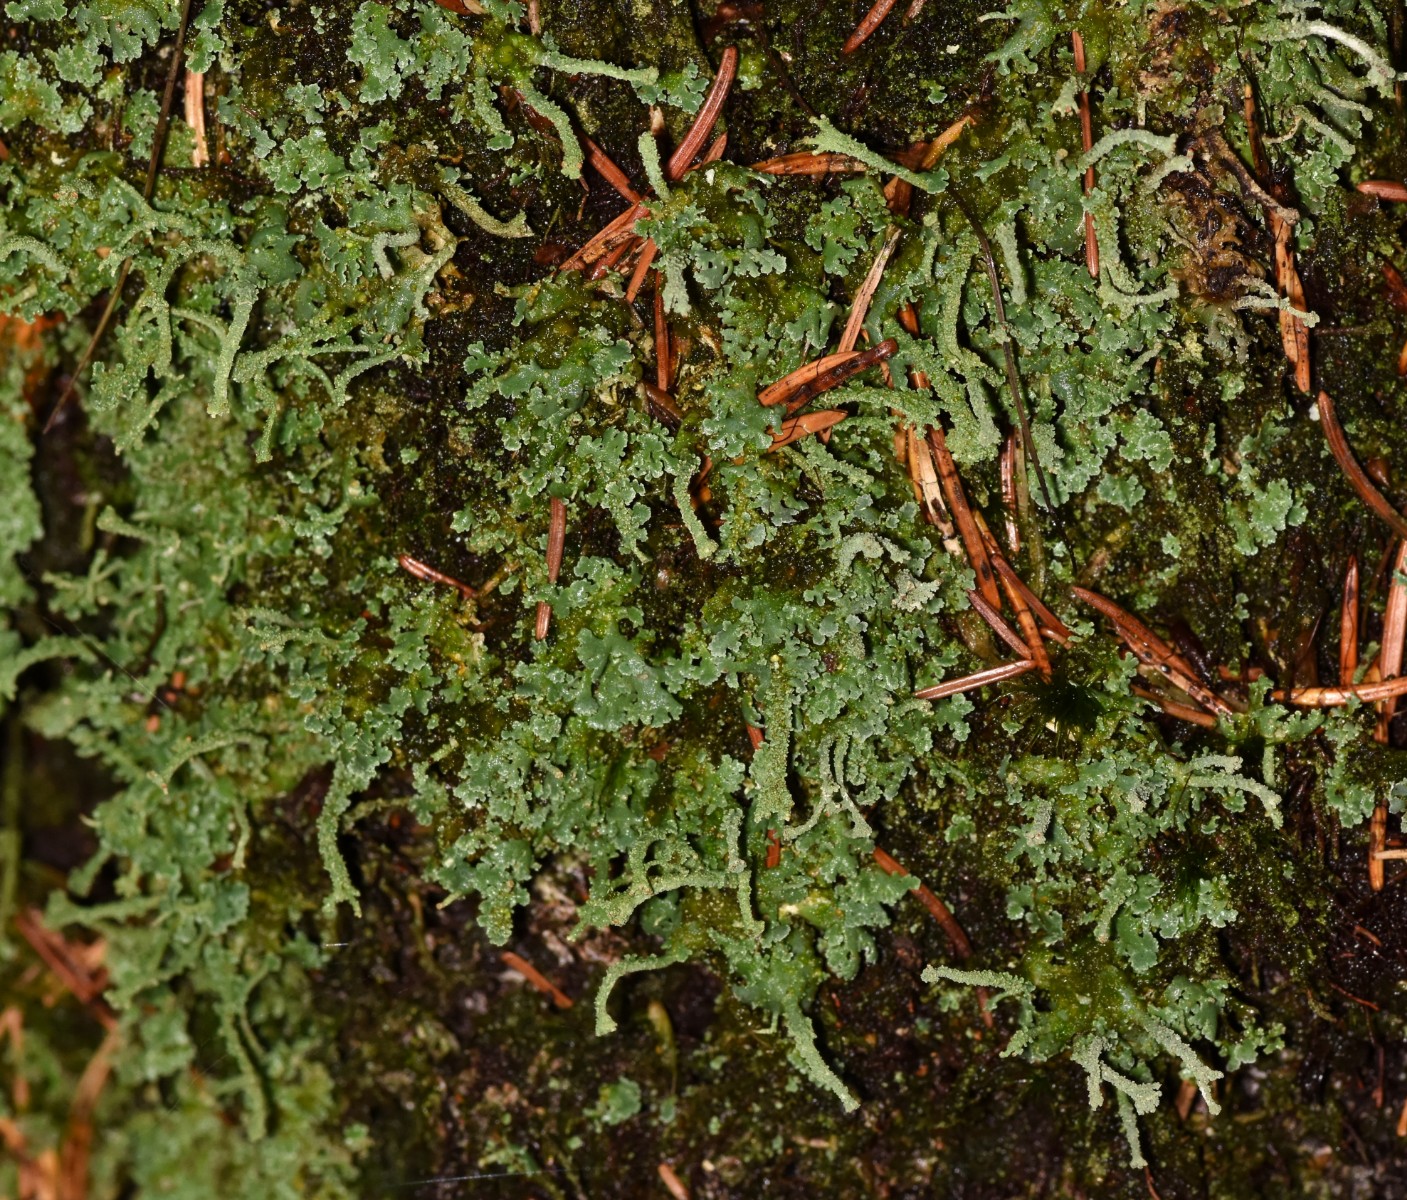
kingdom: Fungi
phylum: Ascomycota
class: Lecanoromycetes
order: Lecanorales
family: Cladoniaceae
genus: Cladonia
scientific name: Cladonia polydactyla
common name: vifte-bægerlav
